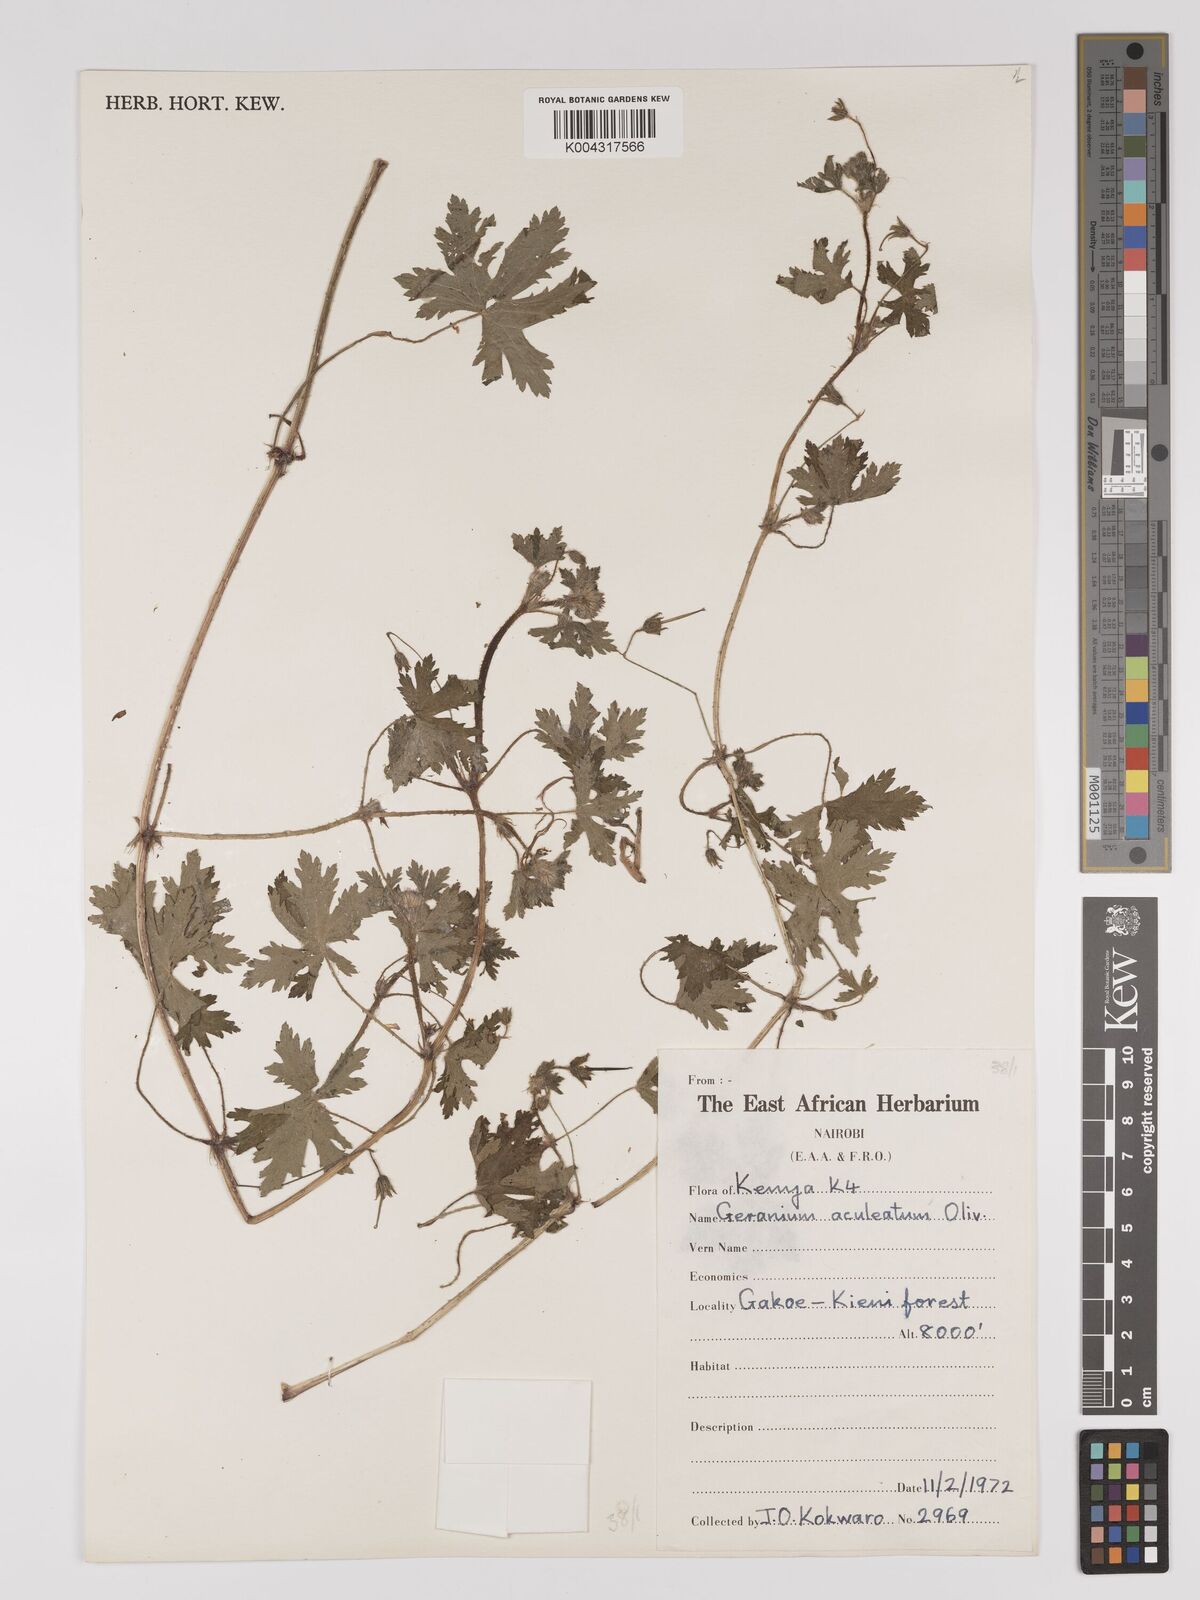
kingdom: Plantae
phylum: Tracheophyta
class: Magnoliopsida
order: Geraniales
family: Geraniaceae
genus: Geranium
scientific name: Geranium aculeolatum
